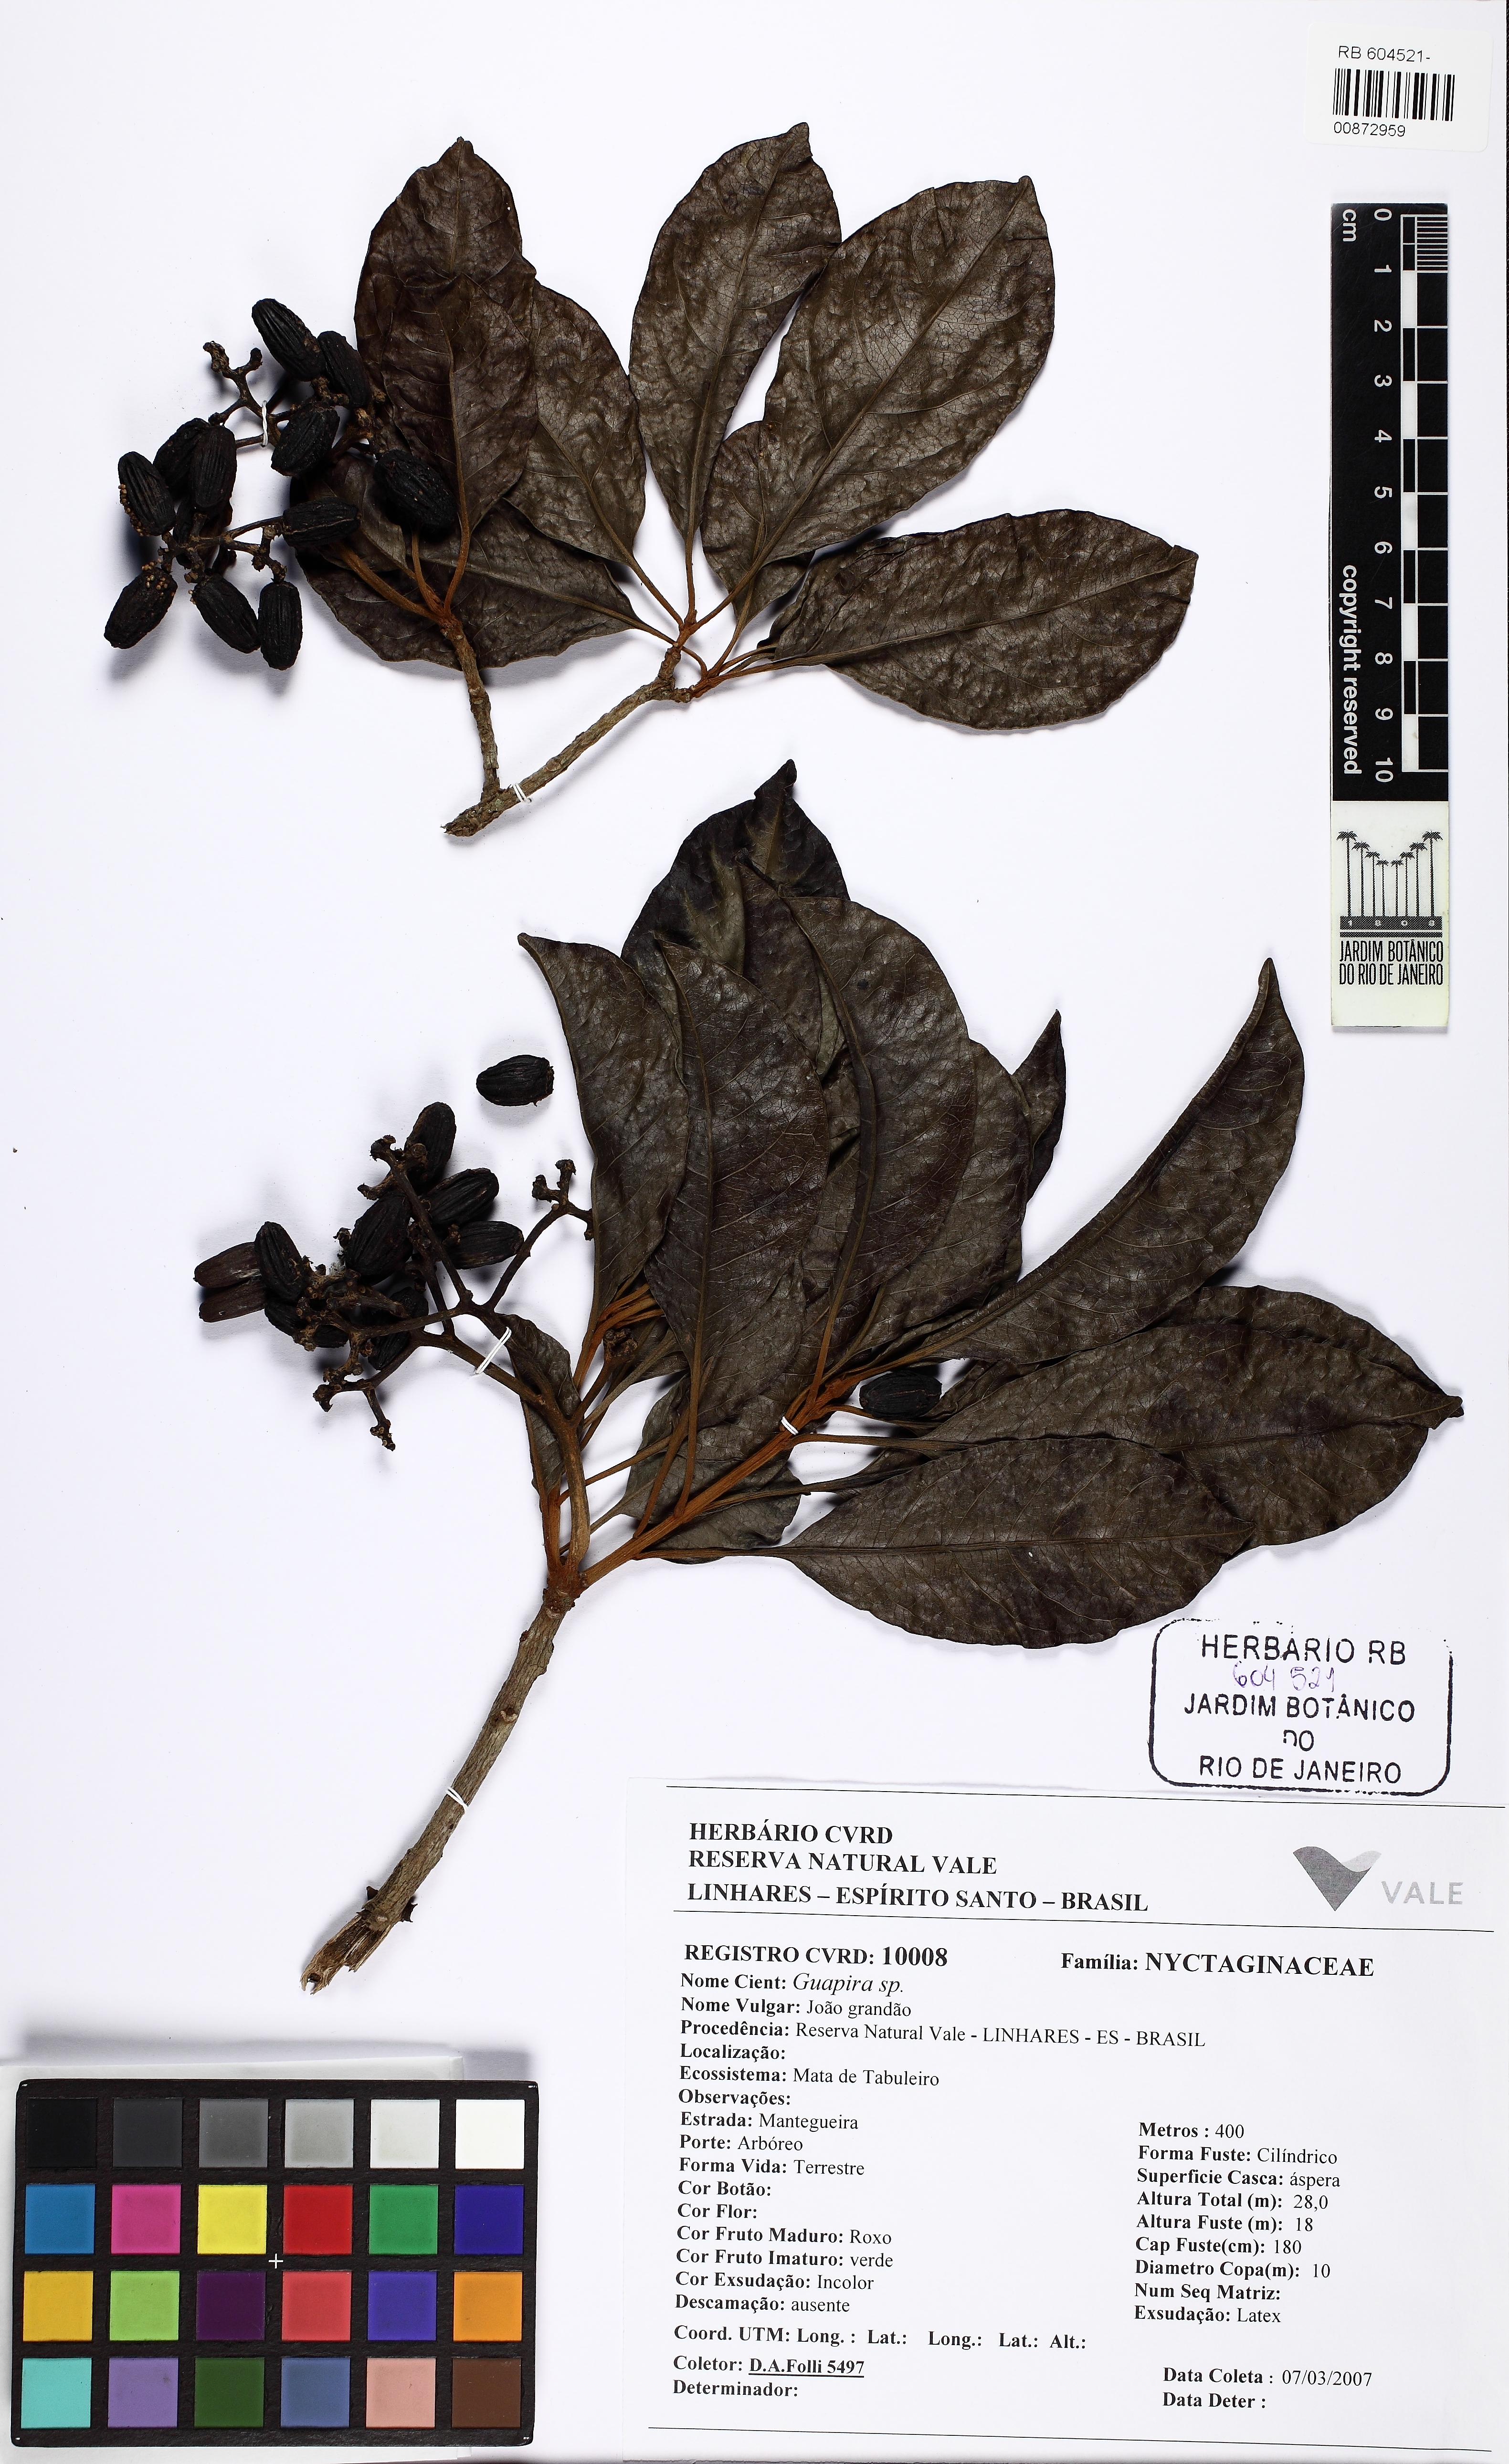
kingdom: Plantae
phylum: Tracheophyta
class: Magnoliopsida
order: Caryophyllales
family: Nyctaginaceae
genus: Guapira
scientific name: Guapira venosa
